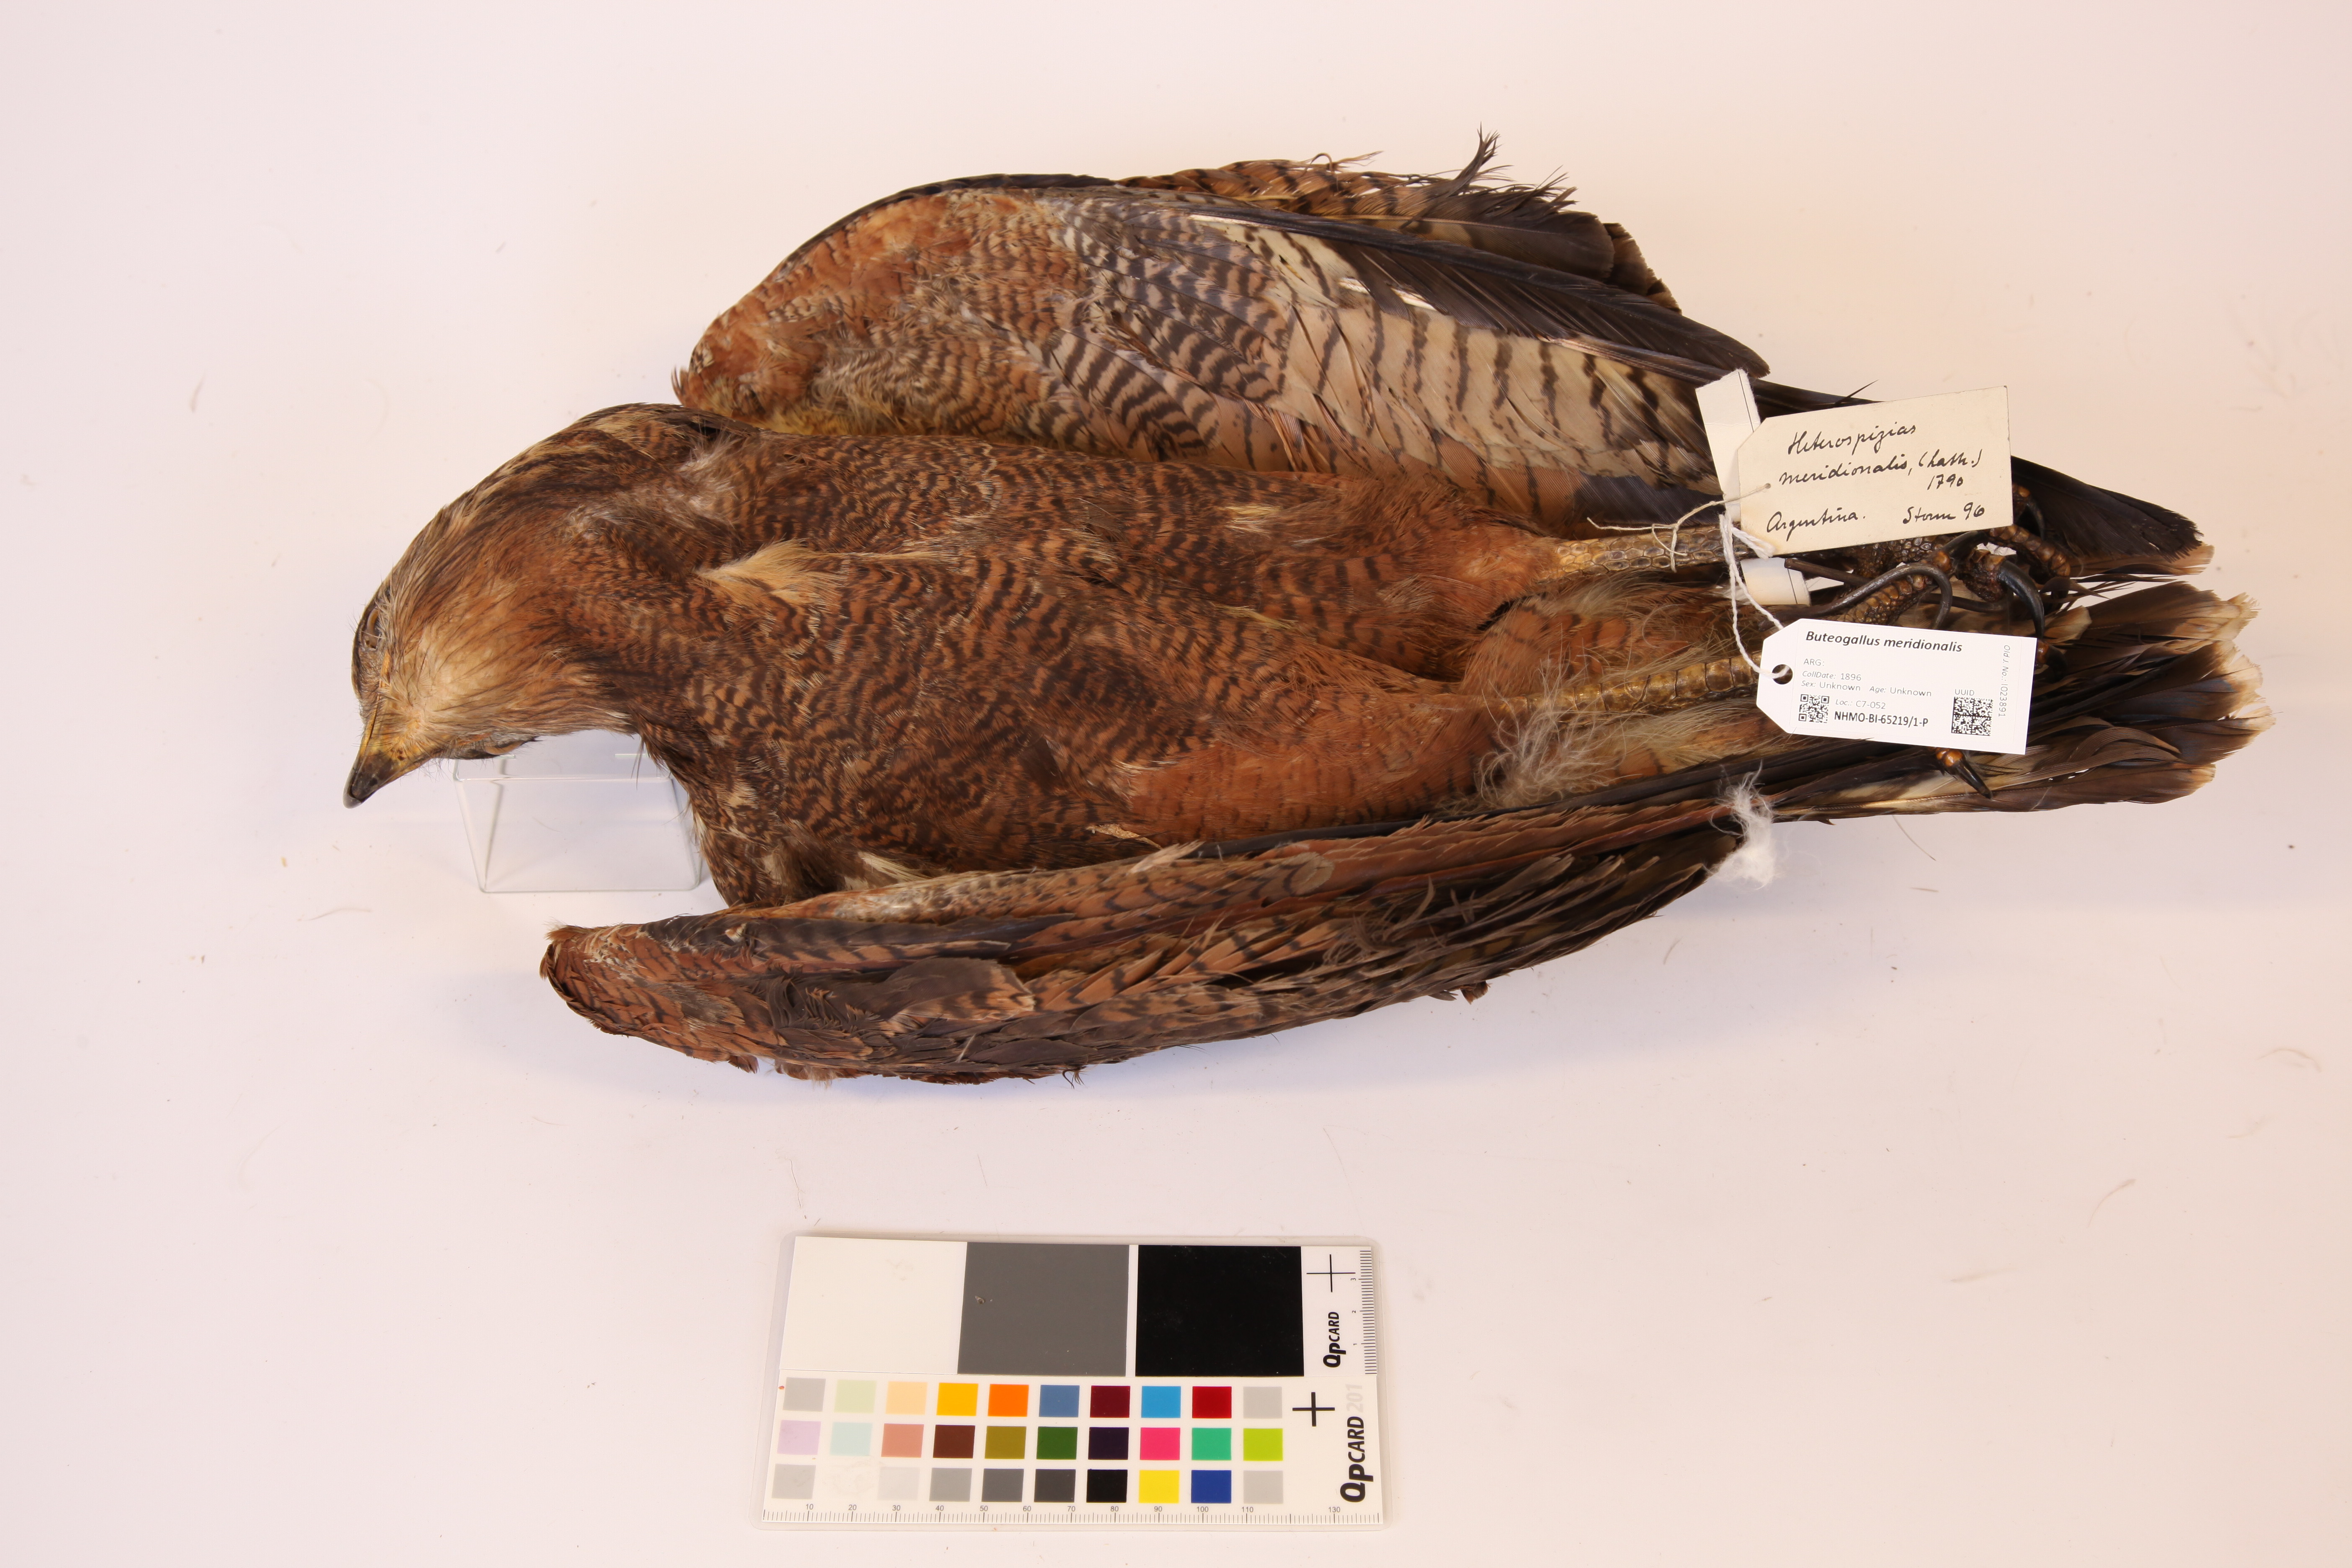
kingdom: Animalia
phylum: Chordata
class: Aves
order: Accipitriformes
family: Accipitridae
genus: Buteogallus
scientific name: Buteogallus meridionalis
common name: Savanna hawk
